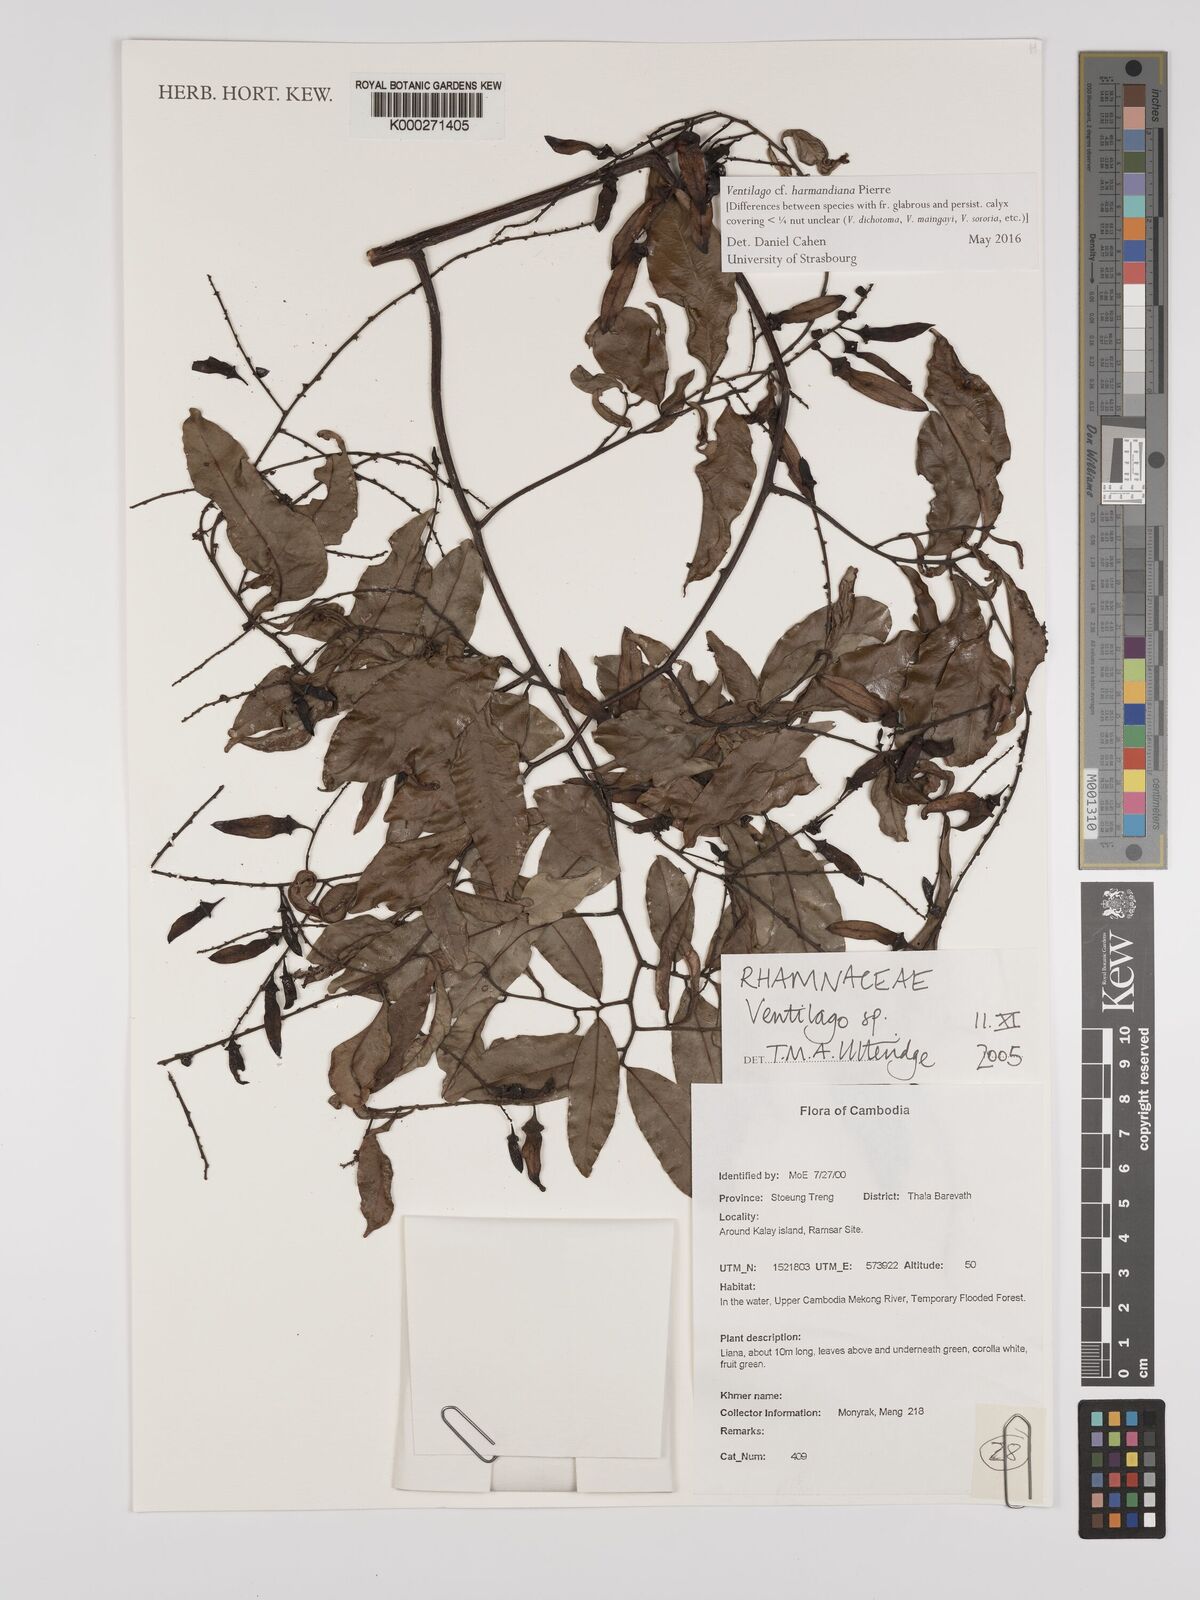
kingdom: Plantae
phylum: Tracheophyta
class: Magnoliopsida
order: Rosales
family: Rhamnaceae
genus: Ventilago
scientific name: Ventilago
